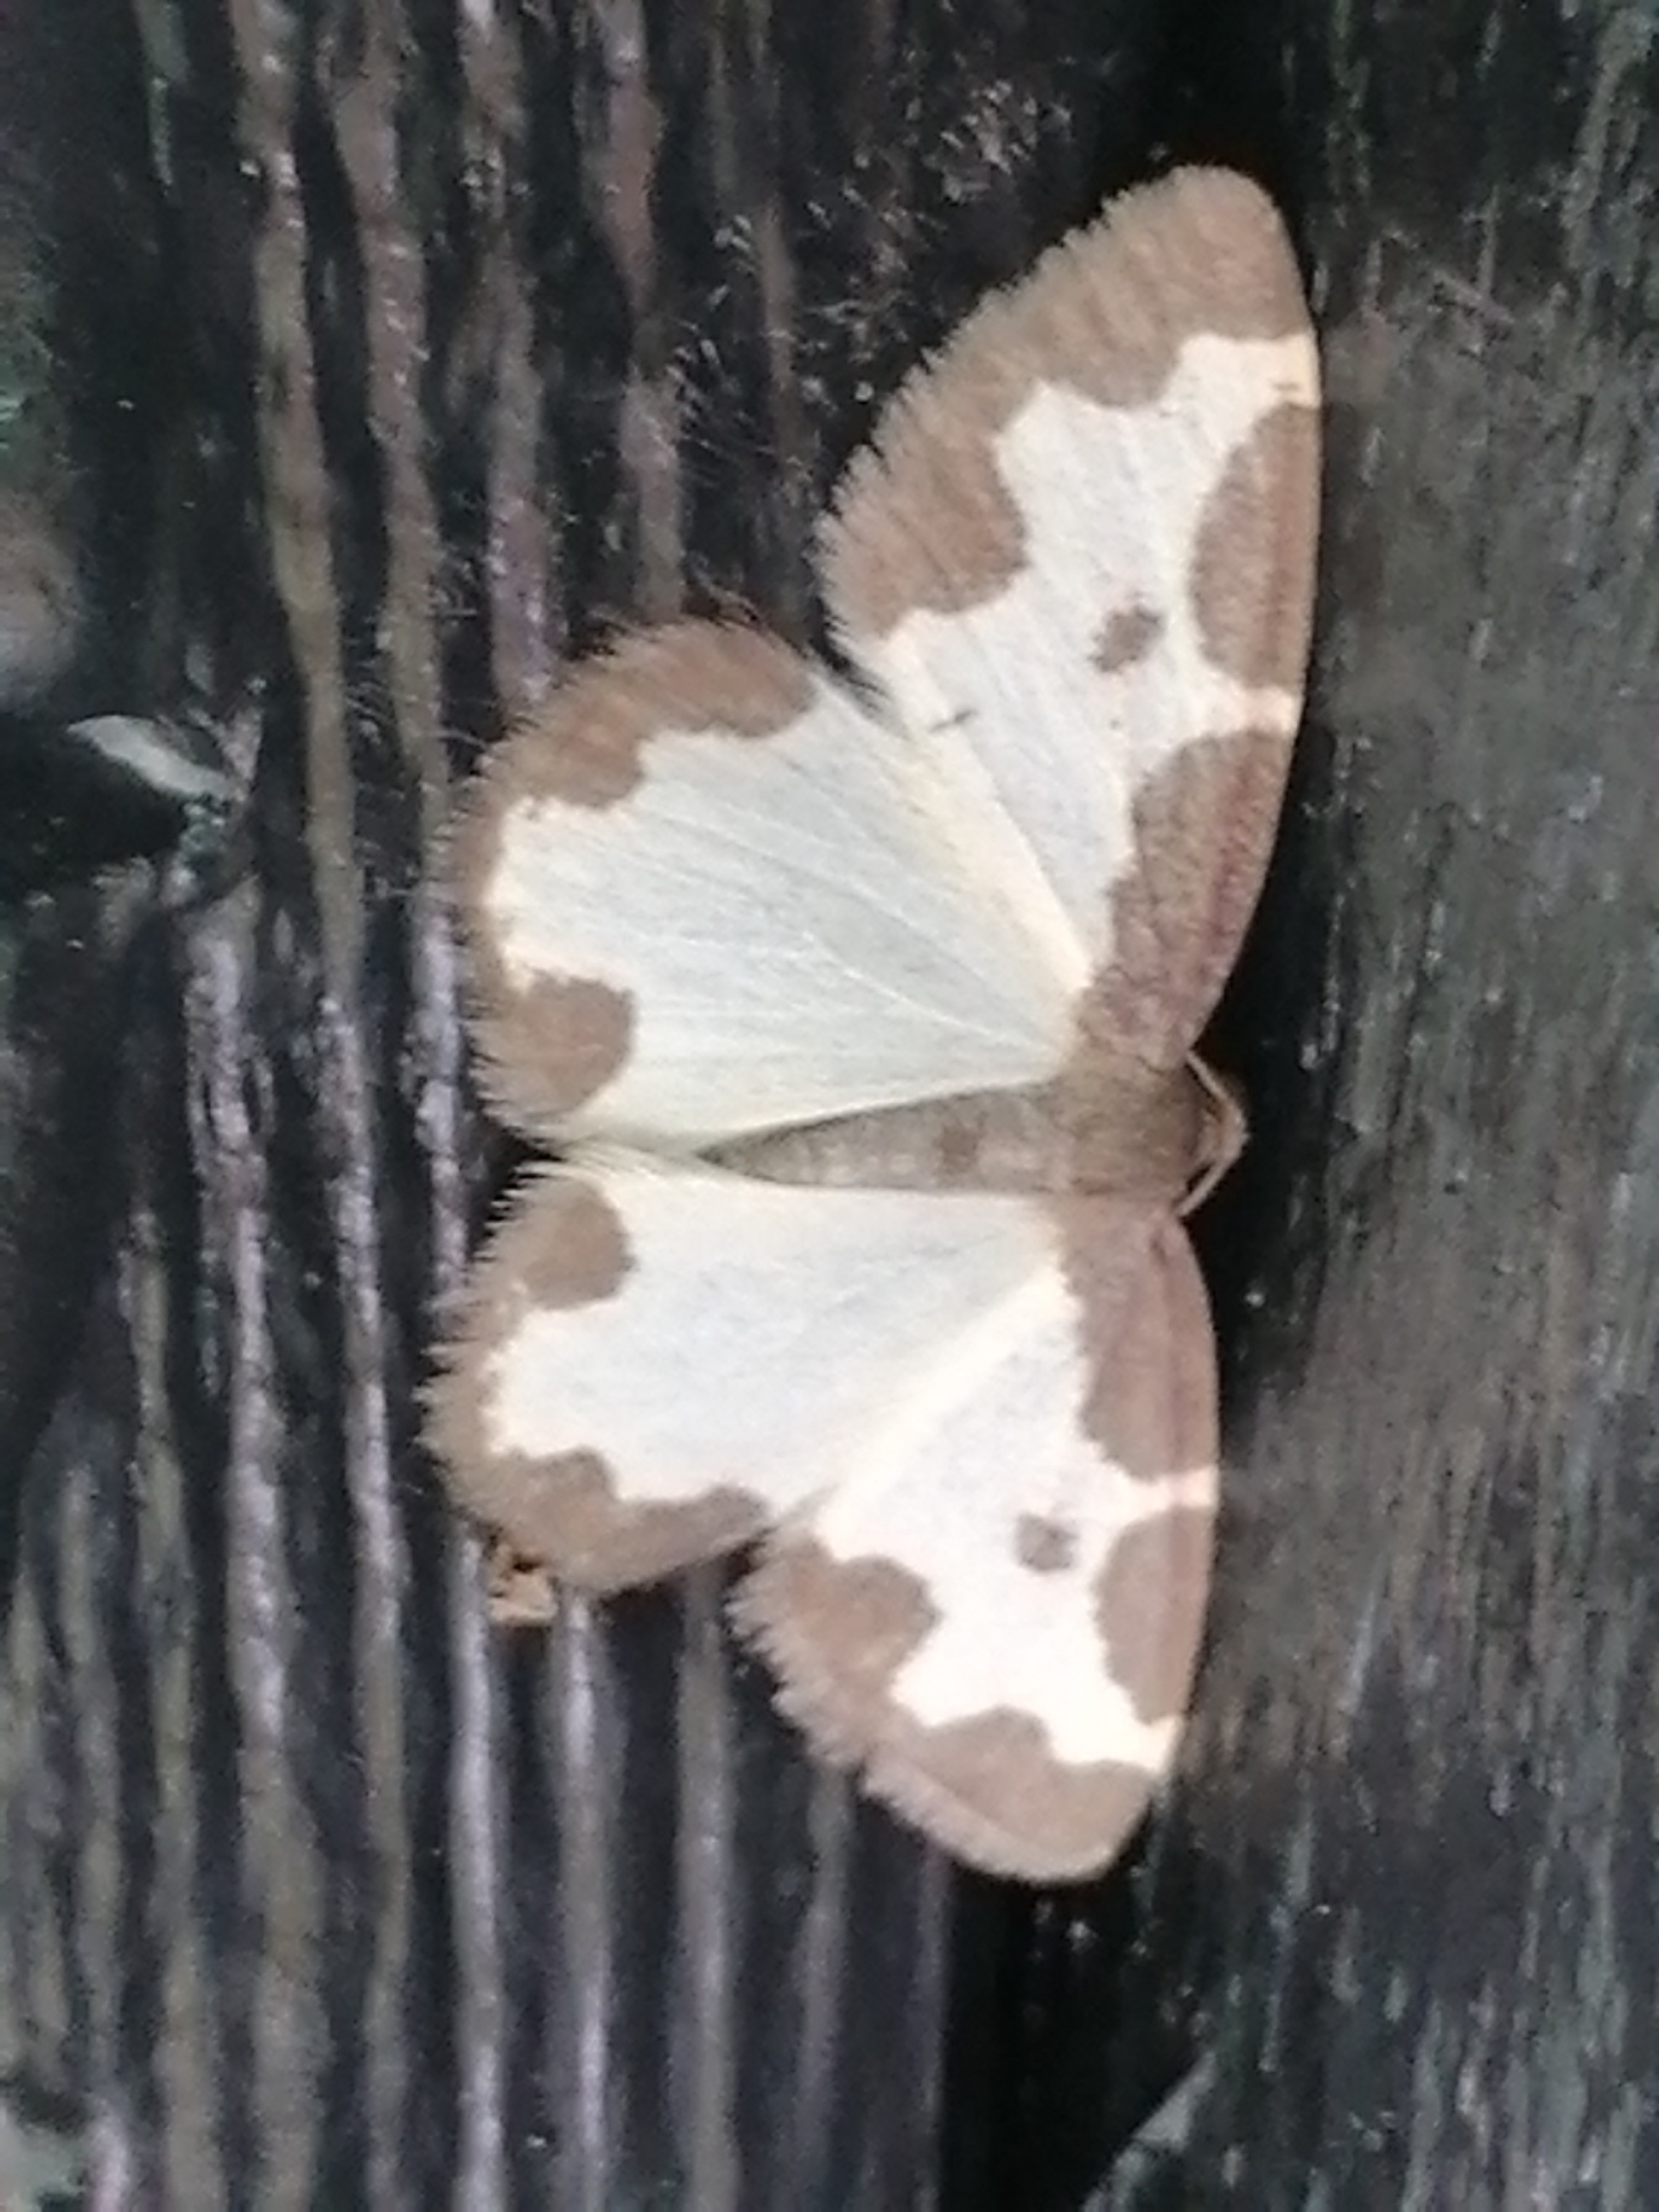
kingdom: Animalia
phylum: Arthropoda
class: Insecta
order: Lepidoptera
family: Geometridae
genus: Lomaspilis
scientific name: Lomaspilis marginata
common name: Sortrandet måler
